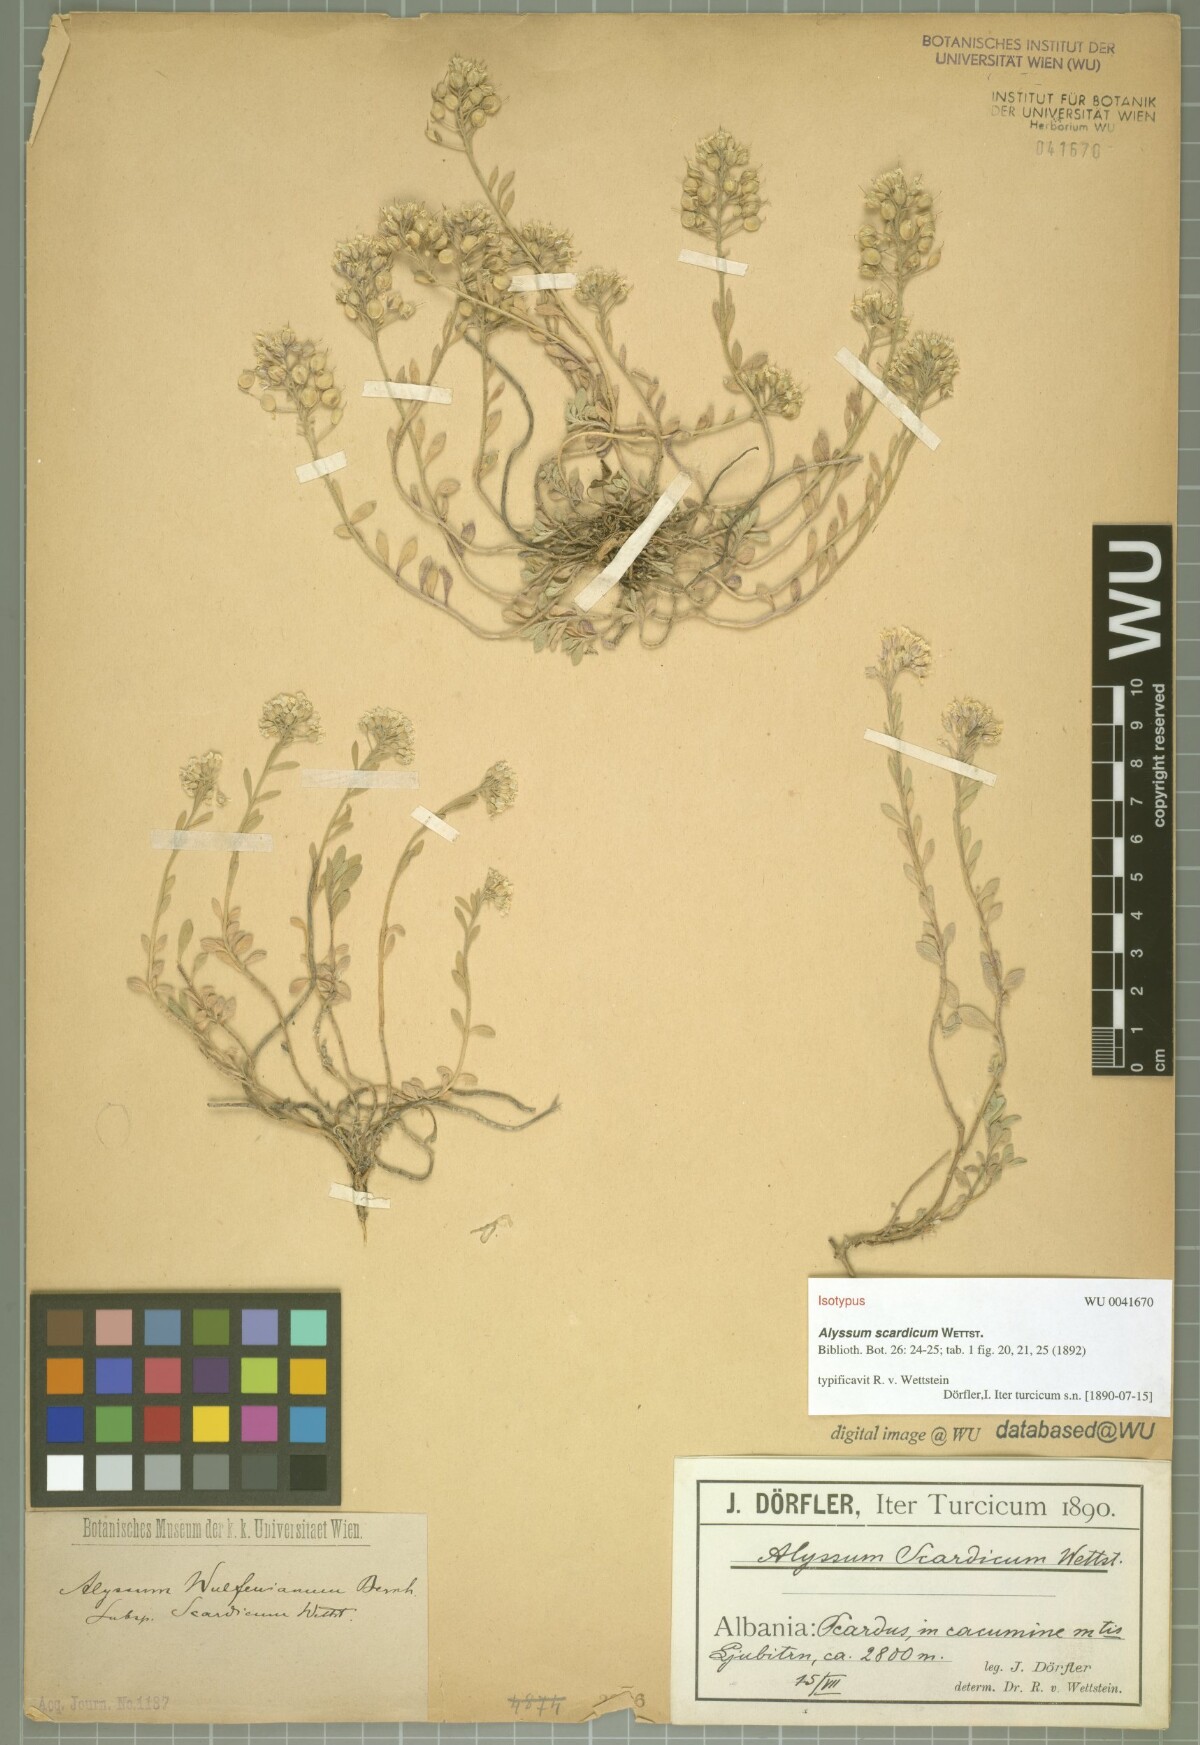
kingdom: Plantae
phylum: Tracheophyta
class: Magnoliopsida
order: Brassicales
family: Brassicaceae
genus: Alyssum
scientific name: Alyssum pirinicum
